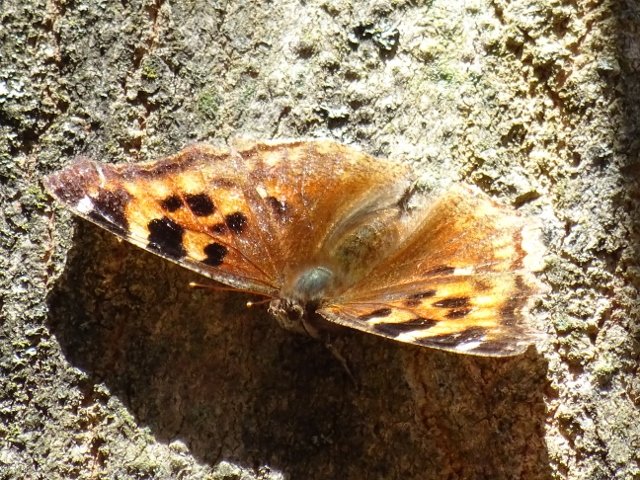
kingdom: Animalia
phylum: Arthropoda
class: Insecta
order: Lepidoptera
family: Nymphalidae
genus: Polygonia
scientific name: Polygonia vaualbum
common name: Compton Tortoiseshell
